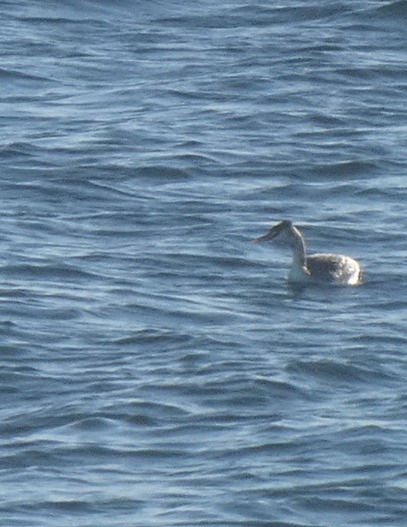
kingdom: Animalia
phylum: Chordata
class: Aves
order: Podicipediformes
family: Podicipedidae
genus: Podiceps
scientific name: Podiceps cristatus
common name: Toppet lappedykker
